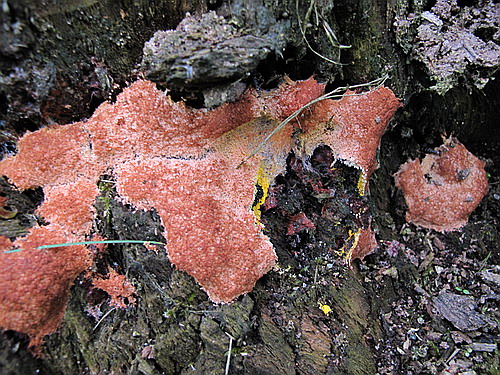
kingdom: Protozoa
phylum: Mycetozoa
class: Myxomycetes
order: Physarales
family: Physaraceae
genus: Fuligo
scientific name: Fuligo septica
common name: Dog vomit slime mold
